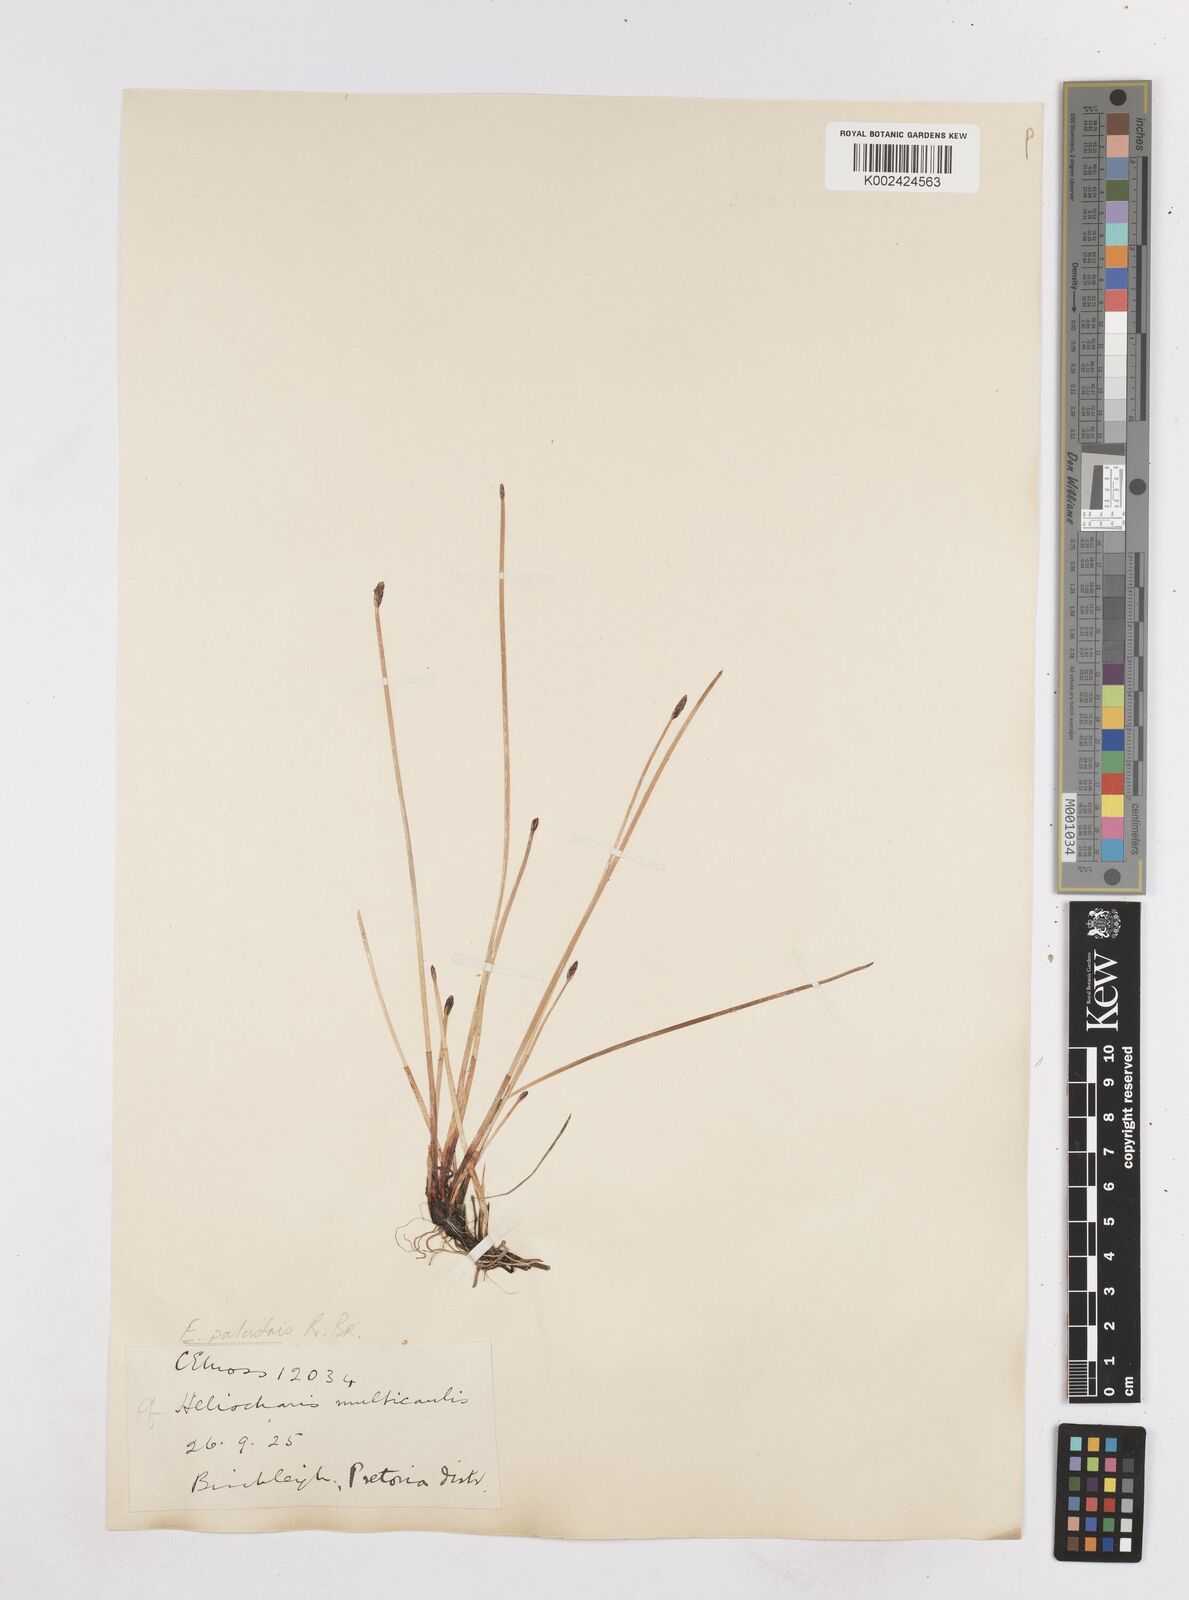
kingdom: Plantae
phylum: Tracheophyta
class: Liliopsida
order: Poales
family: Cyperaceae
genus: Eleocharis
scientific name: Eleocharis palustris
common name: Common spike-rush
